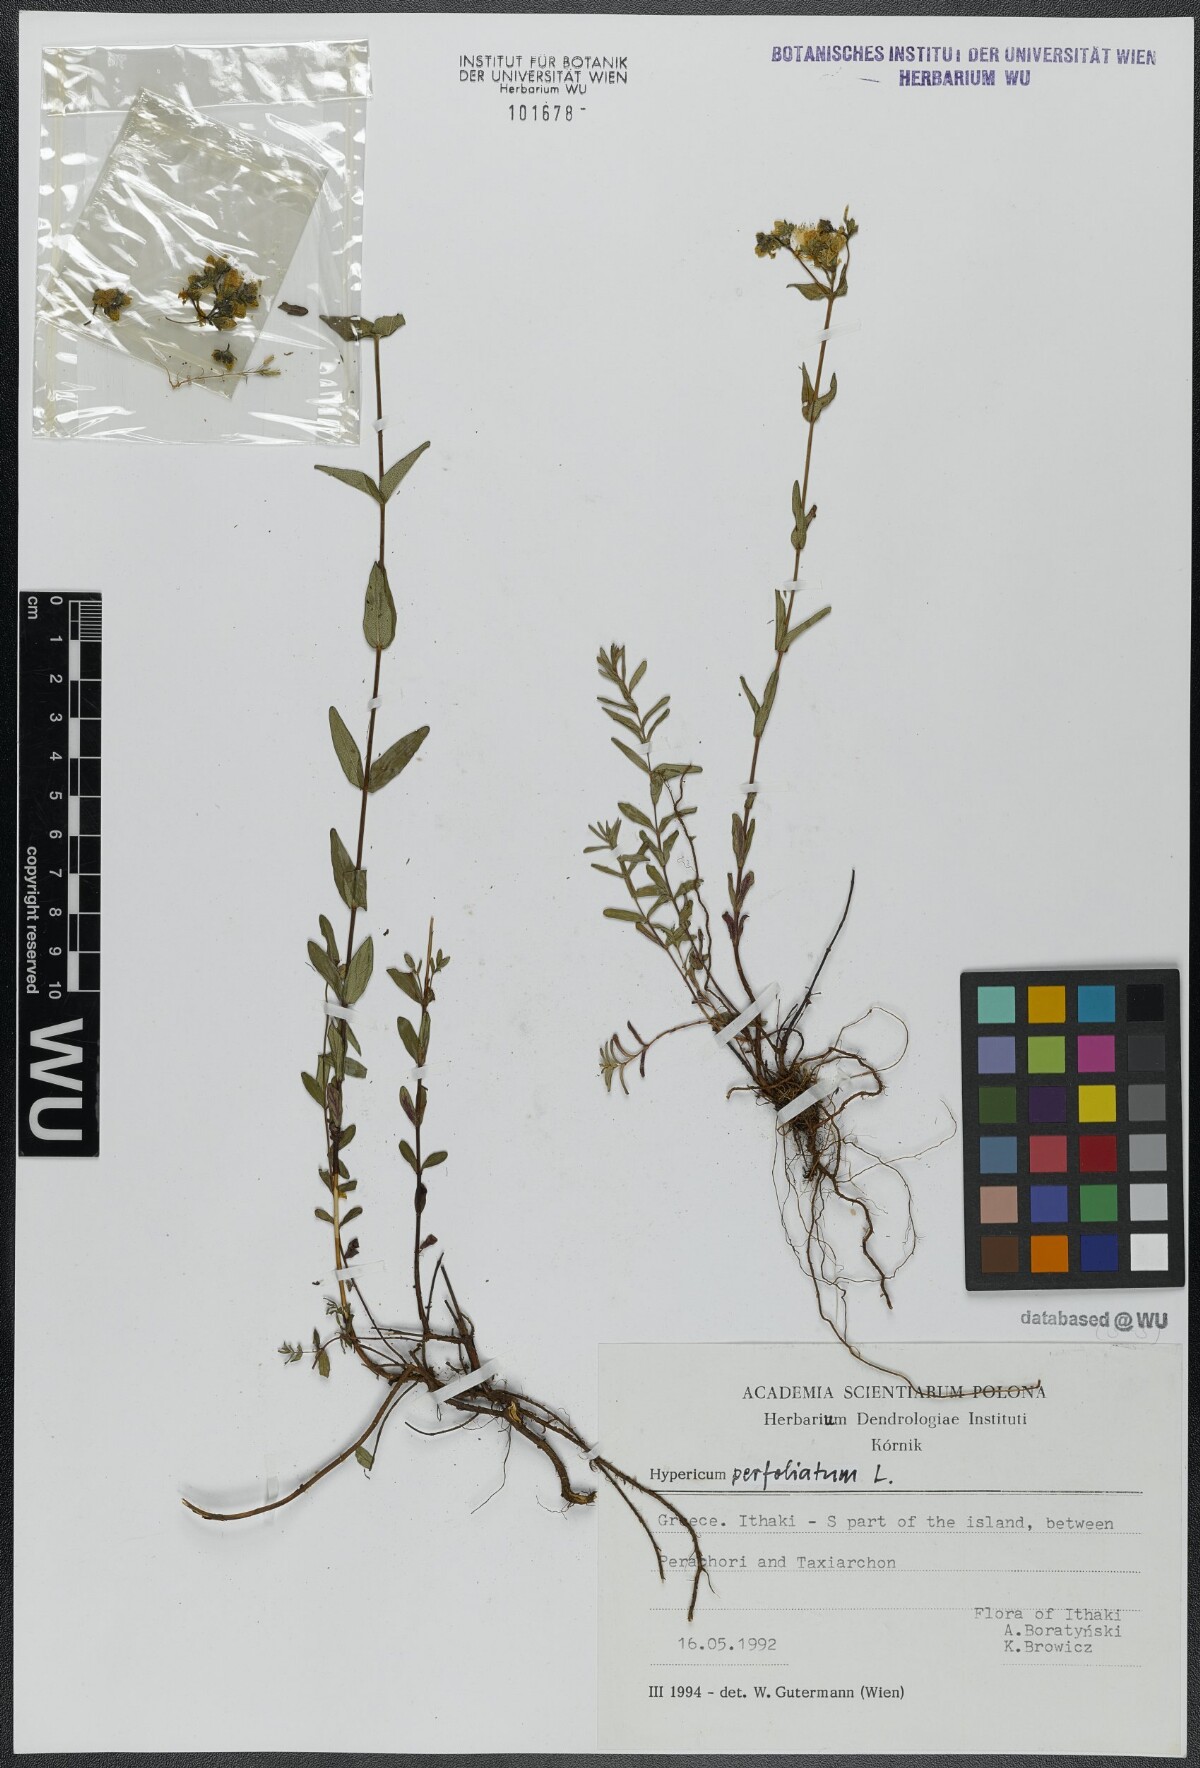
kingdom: Plantae
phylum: Tracheophyta
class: Magnoliopsida
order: Malpighiales
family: Hypericaceae
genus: Hypericum
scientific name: Hypericum perfoliatum
